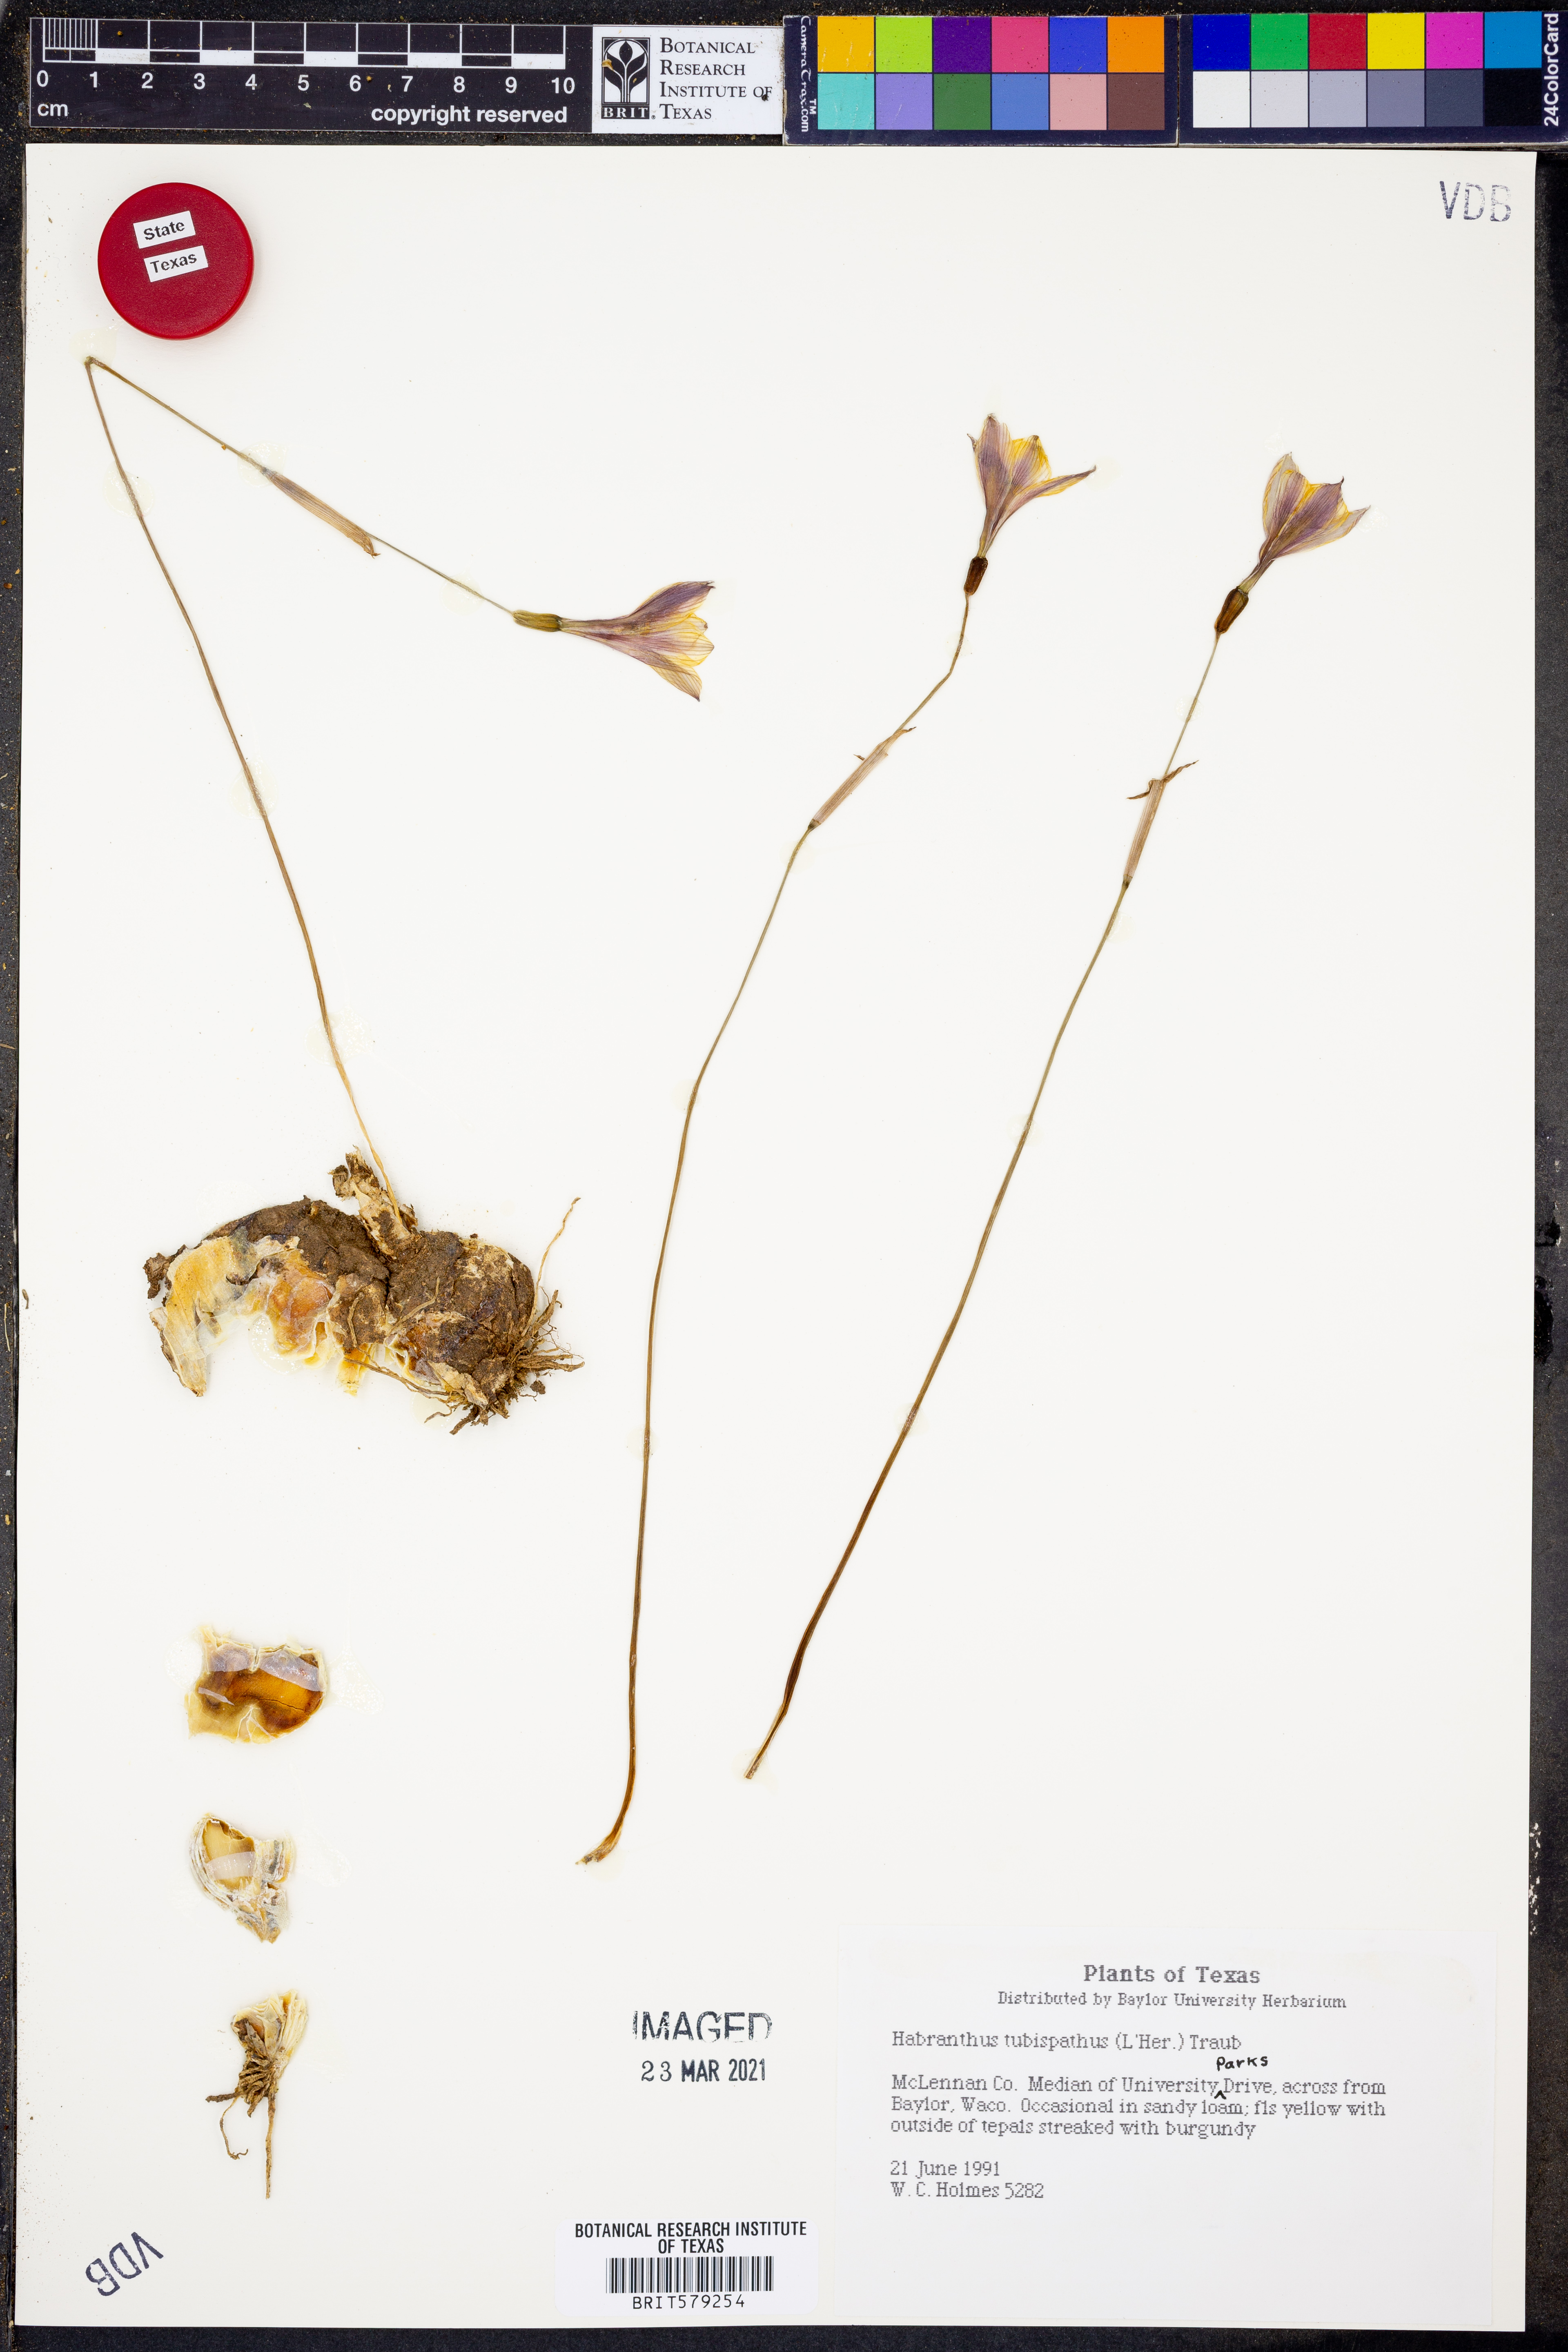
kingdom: Plantae
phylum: Tracheophyta
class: Liliopsida
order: Asparagales
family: Amaryllidaceae
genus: Zephyranthes
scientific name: Zephyranthes tubispatha
